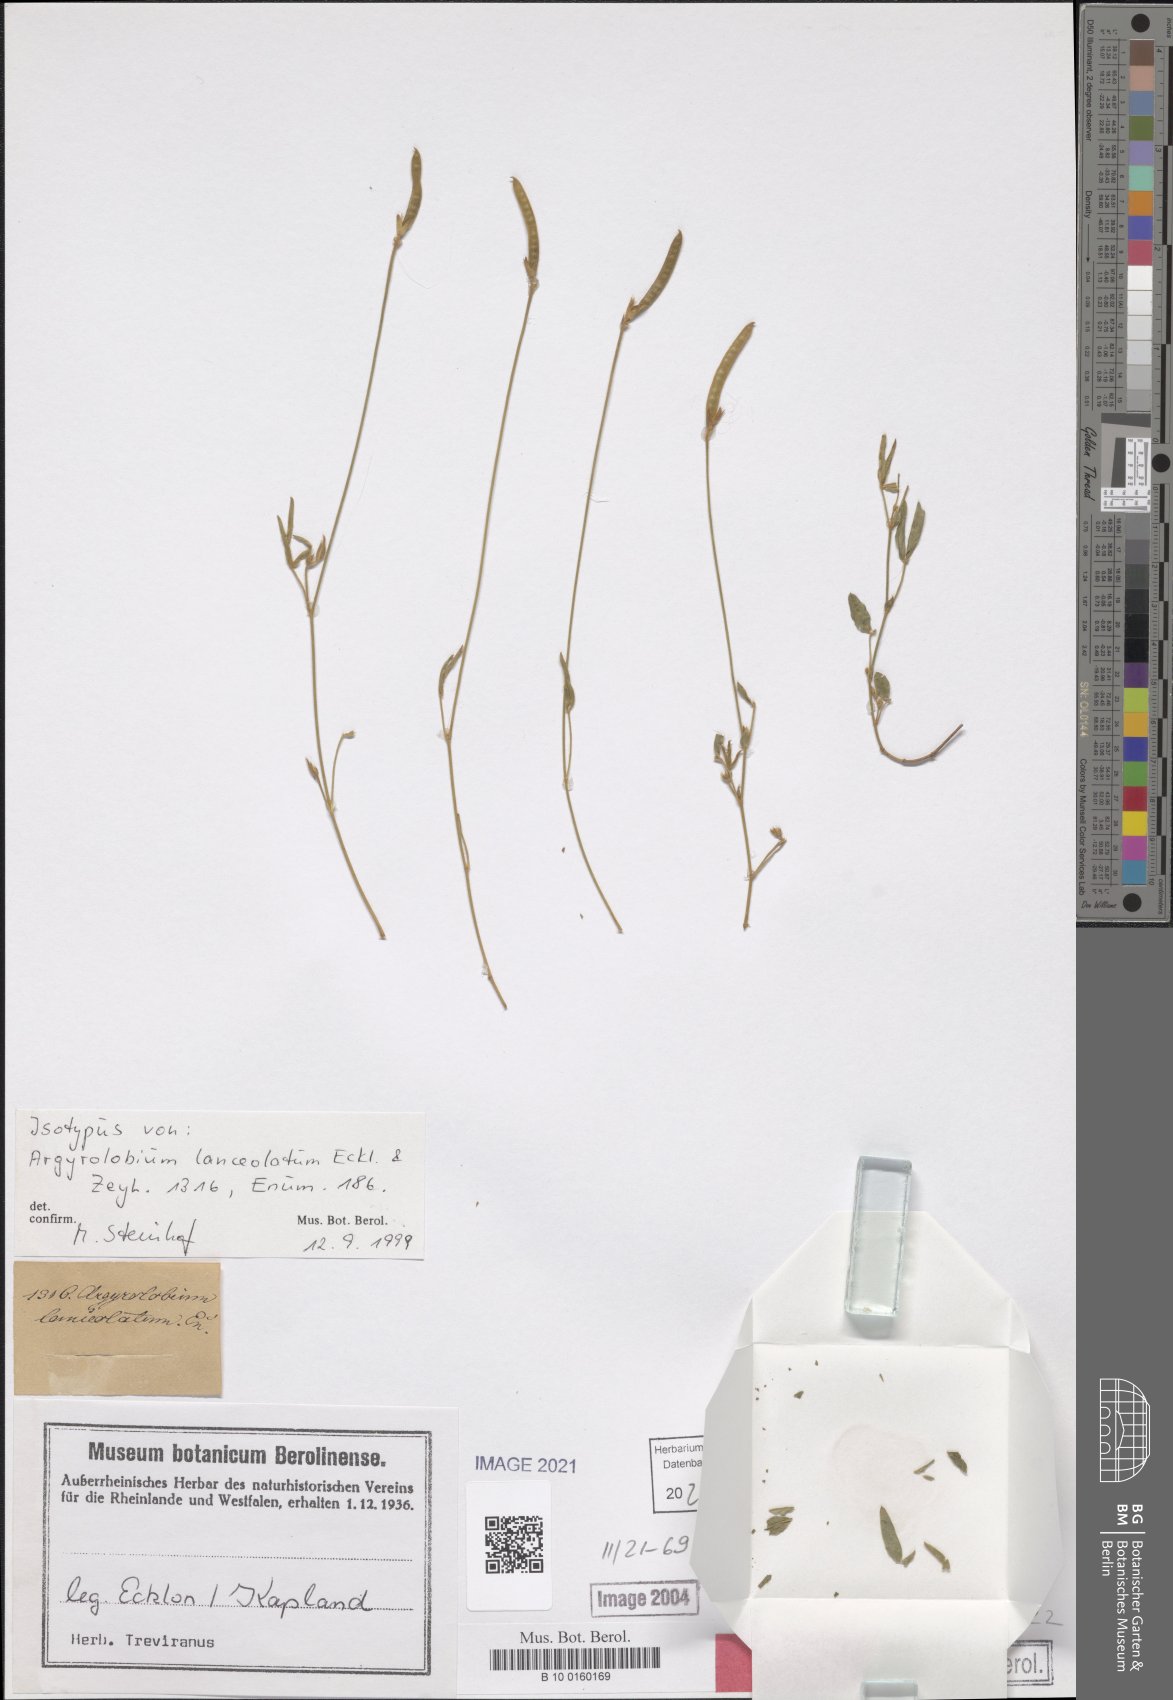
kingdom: Plantae
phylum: Tracheophyta
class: Magnoliopsida
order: Fabales
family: Fabaceae
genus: Argyrolobium
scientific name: Argyrolobium lunare
